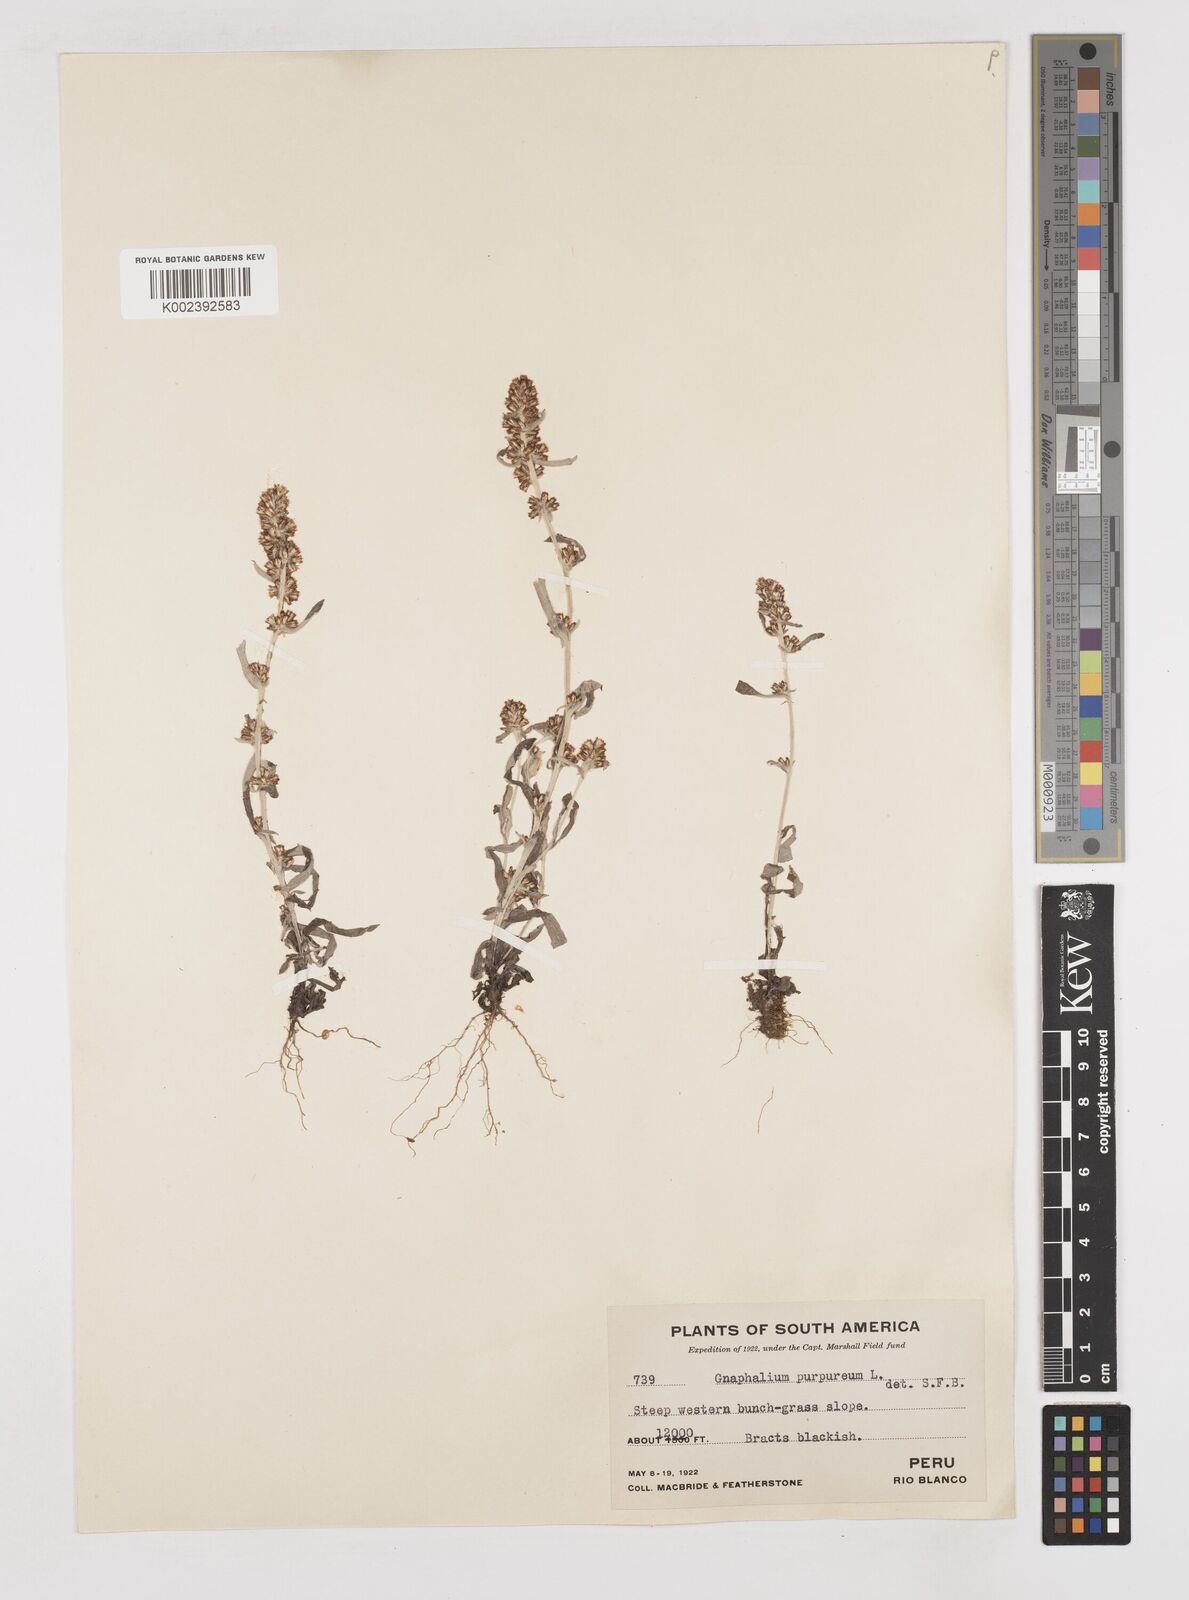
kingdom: Plantae
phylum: Tracheophyta
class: Magnoliopsida
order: Asterales
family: Asteraceae
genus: Pseudognaphalium
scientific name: Pseudognaphalium purpurascens
